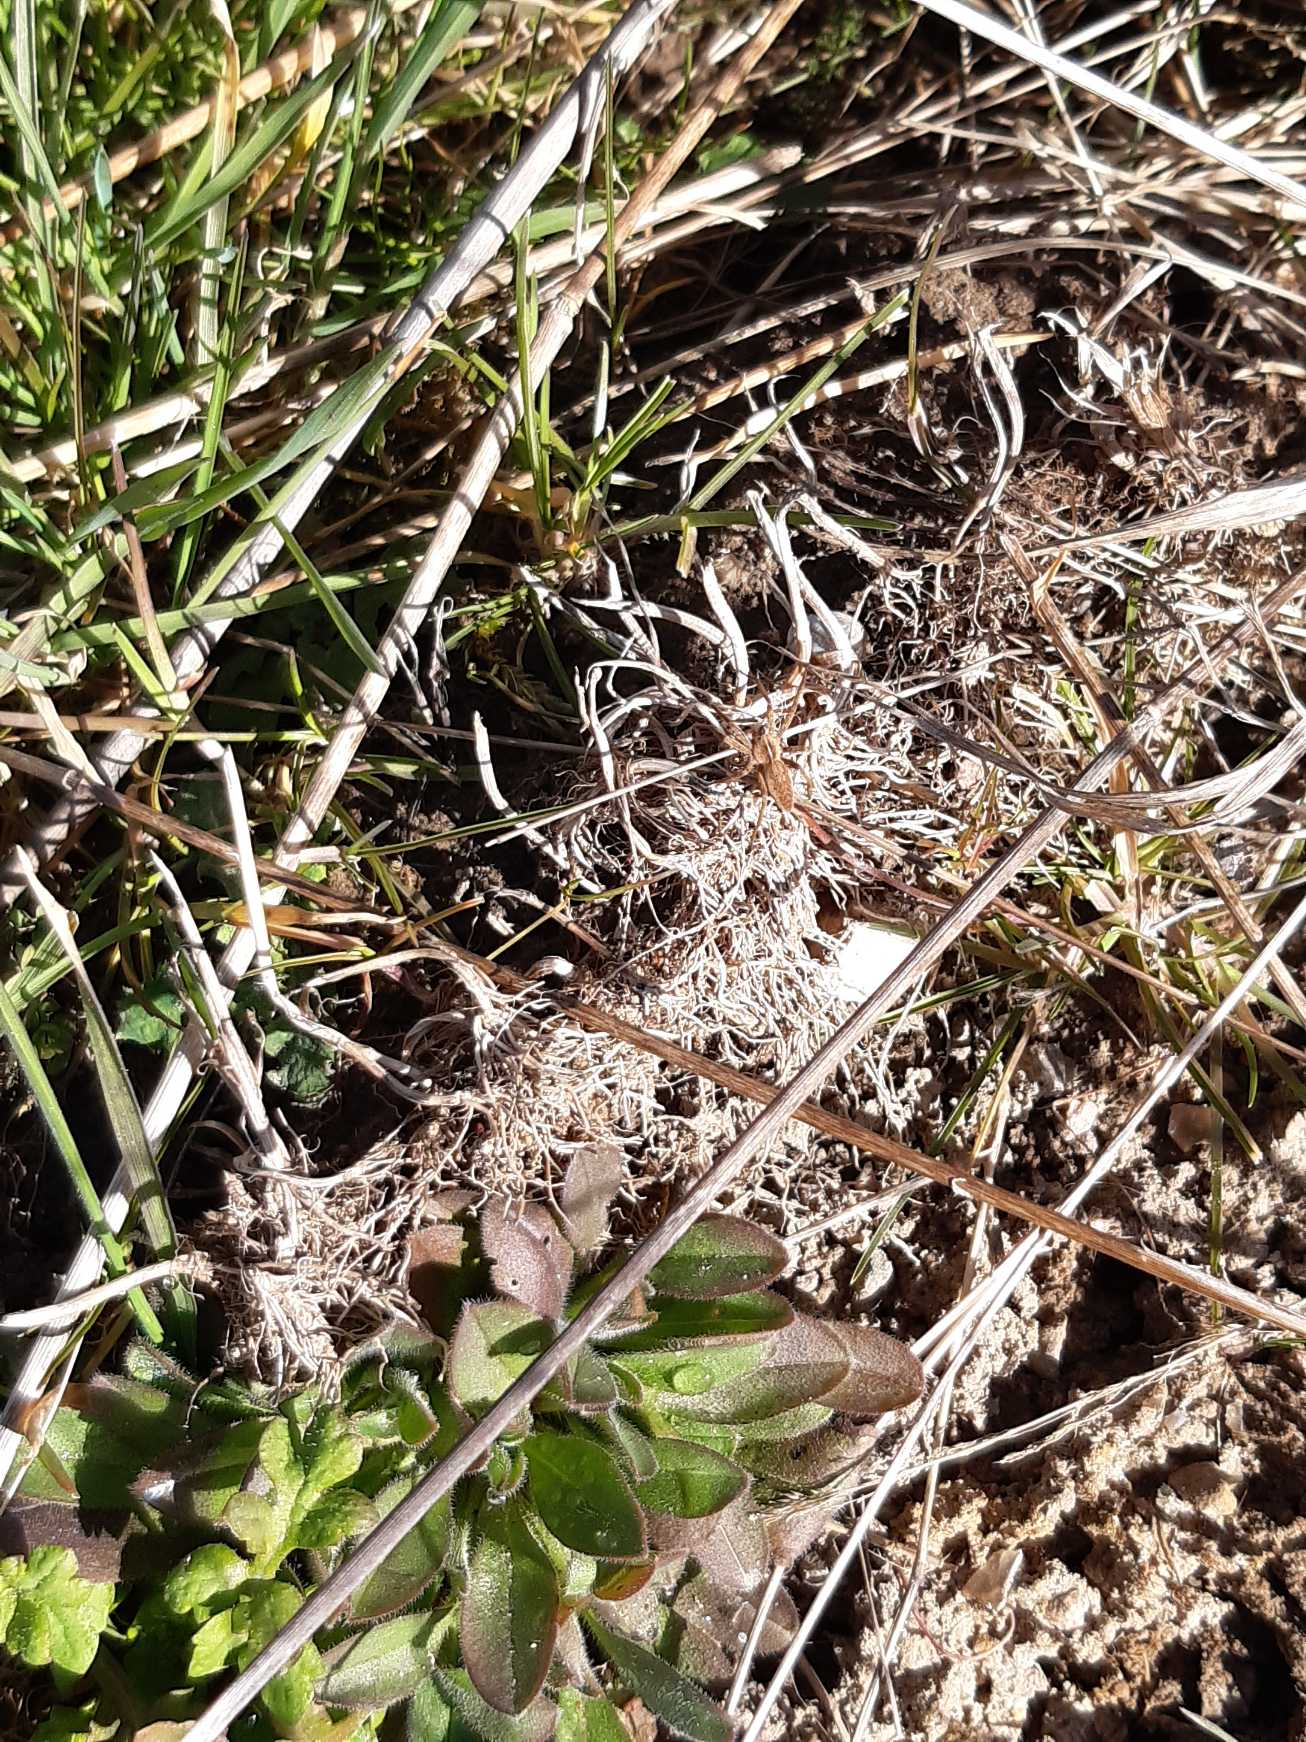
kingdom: Animalia
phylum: Arthropoda
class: Arachnida
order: Araneae
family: Pisauridae
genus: Pisaura
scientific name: Pisaura mirabilis
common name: Almindelig rovedderkop
